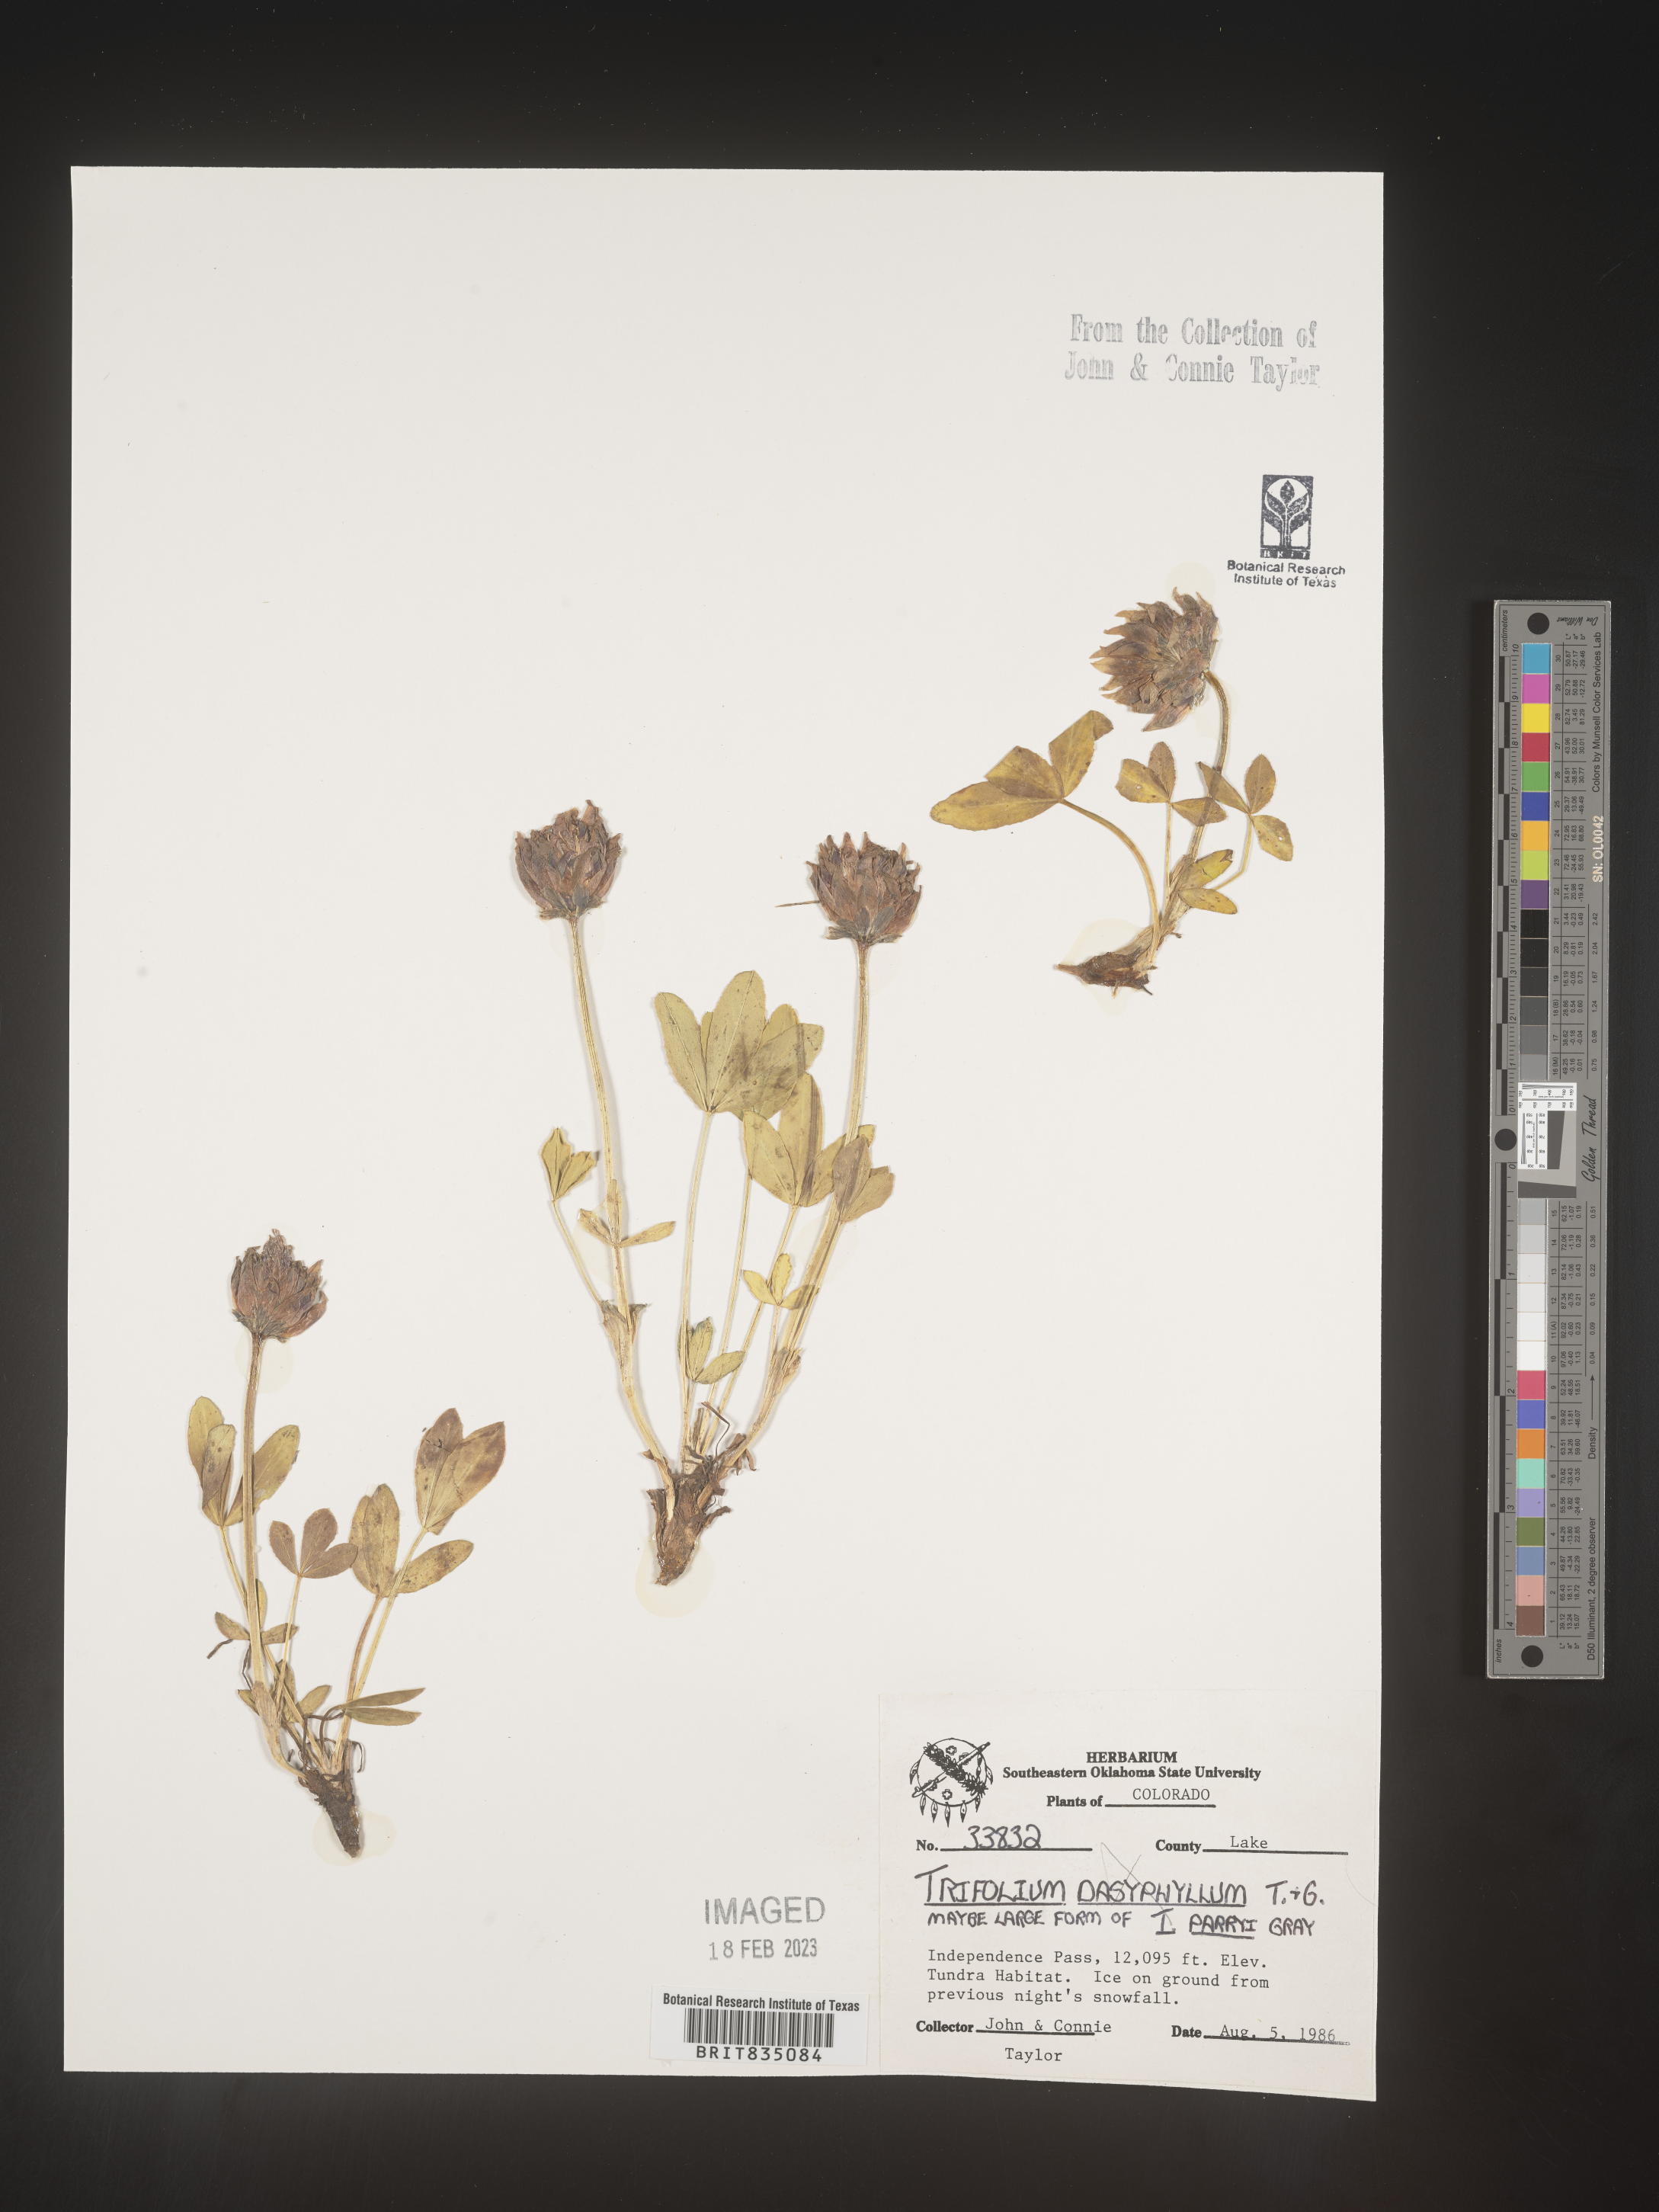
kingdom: Plantae
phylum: Tracheophyta
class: Magnoliopsida
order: Fabales
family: Fabaceae
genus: Trifolium
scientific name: Trifolium
